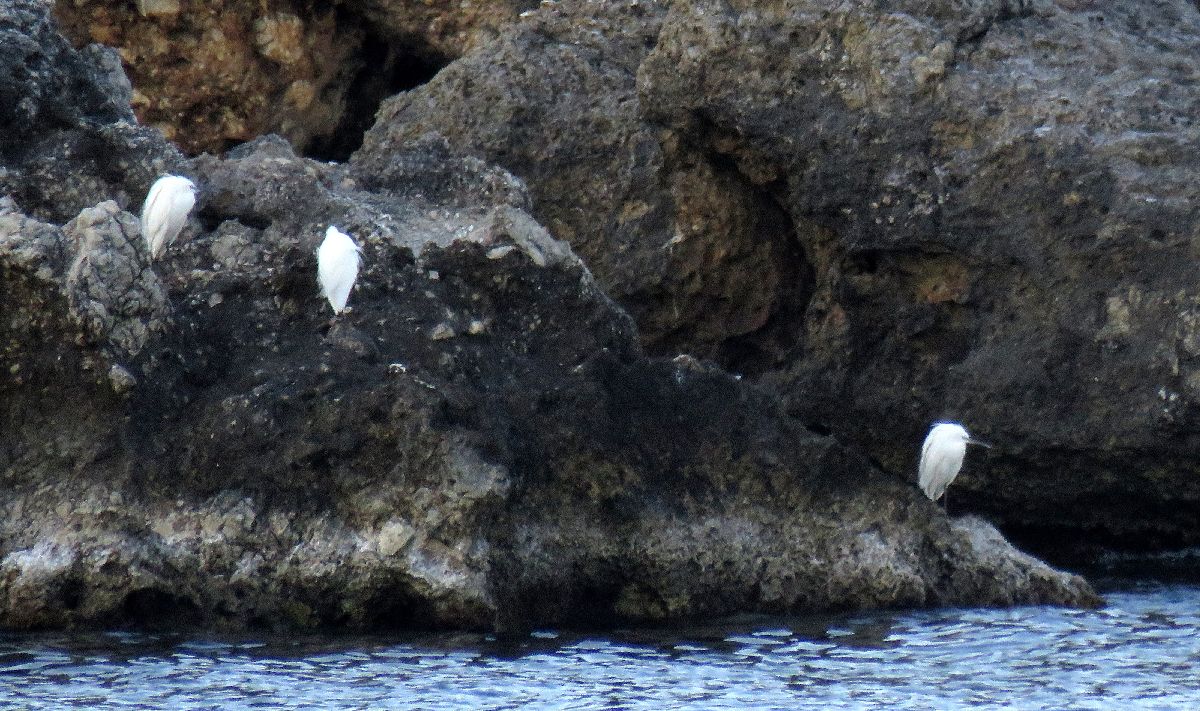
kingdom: Animalia
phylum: Chordata
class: Aves
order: Pelecaniformes
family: Ardeidae
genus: Egretta
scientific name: Egretta garzetta
